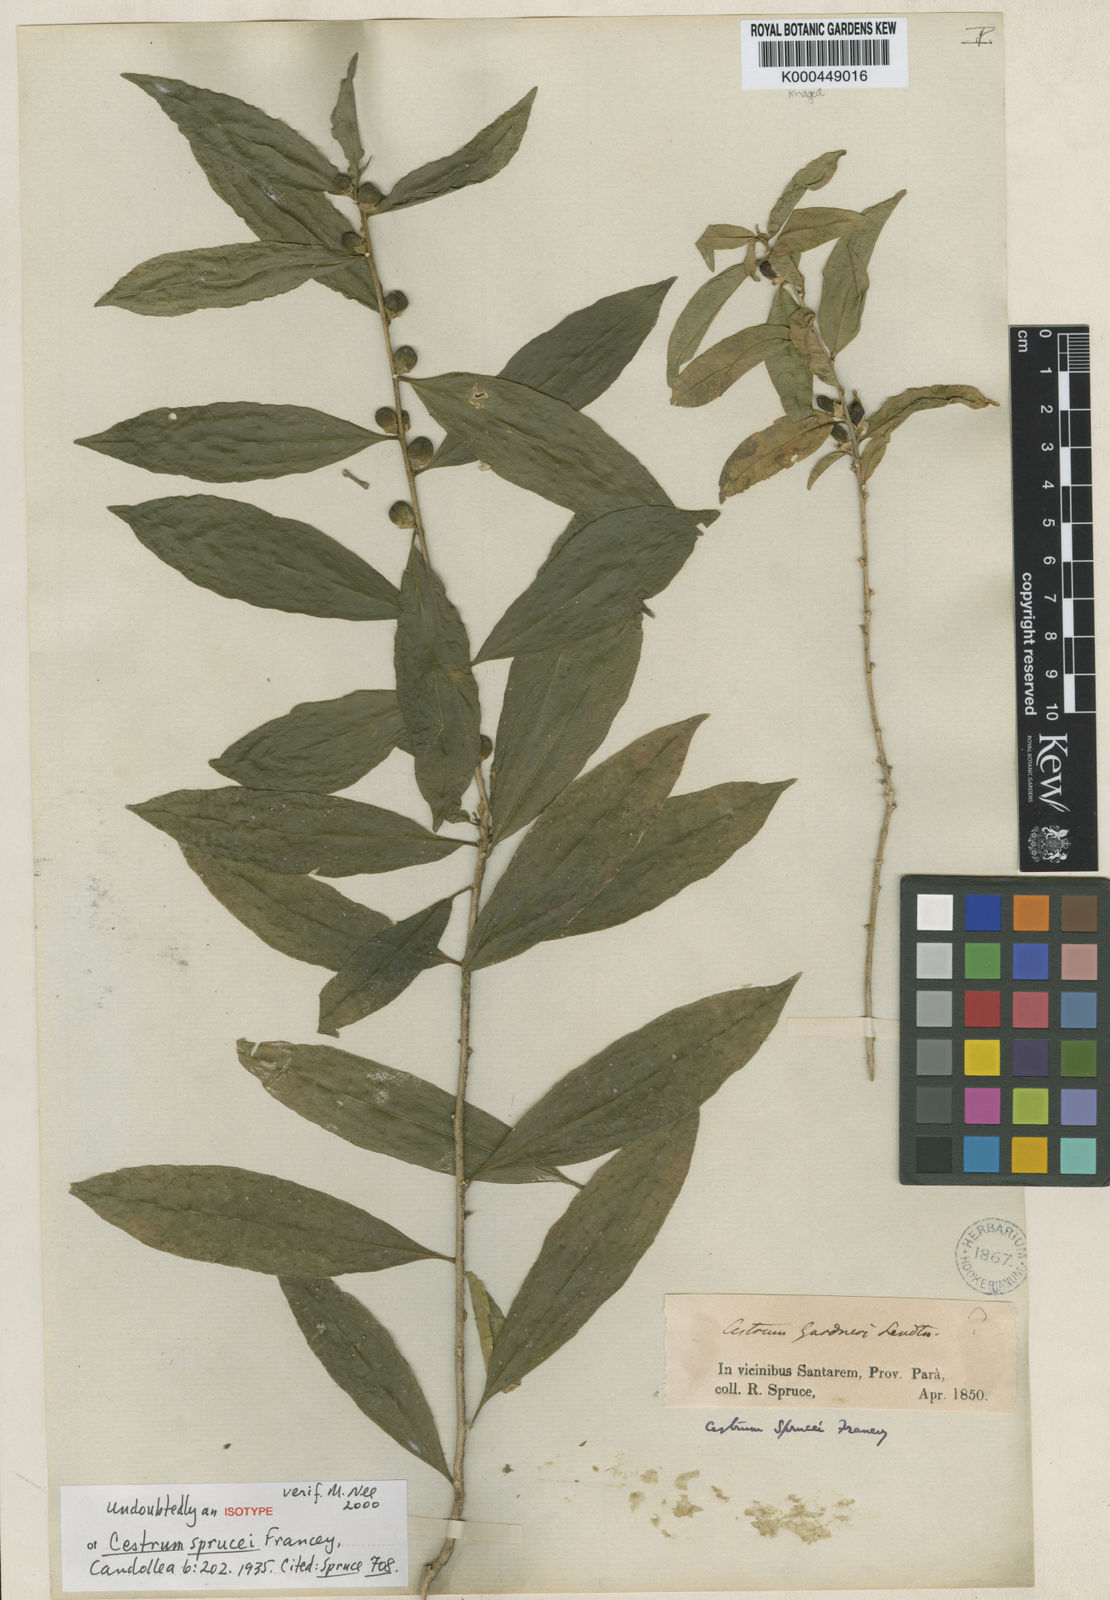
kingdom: Plantae
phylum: Tracheophyta
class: Magnoliopsida
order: Solanales
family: Solanaceae
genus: Cestrum
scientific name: Cestrum schulzianum
